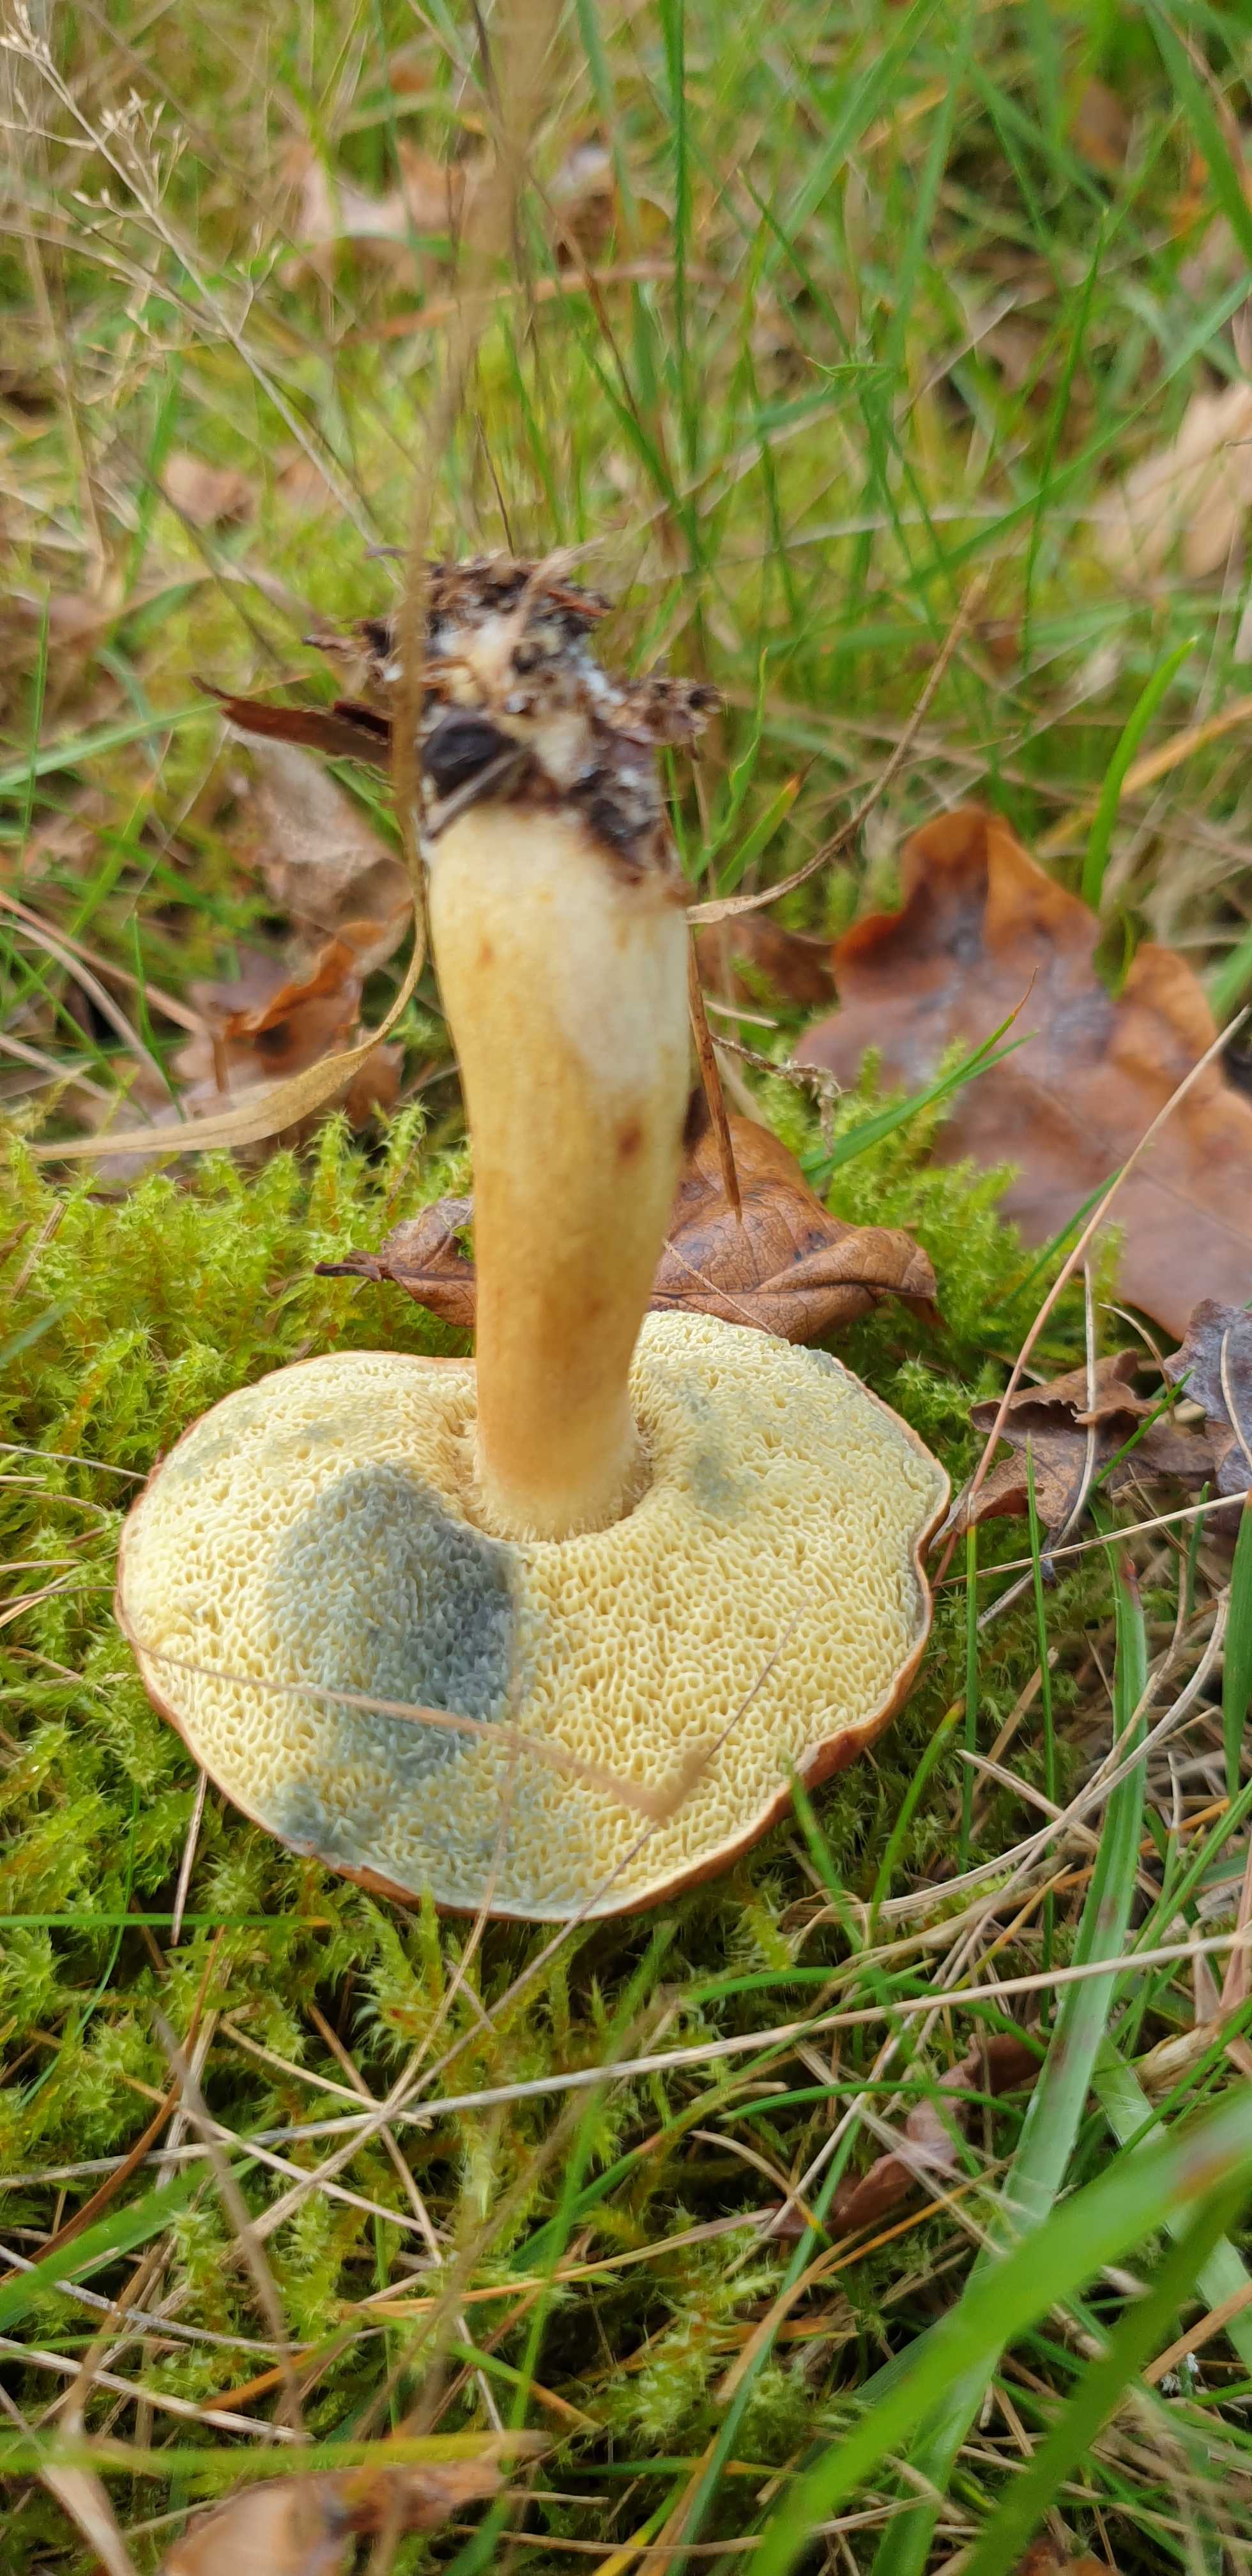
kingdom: Fungi
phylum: Basidiomycota
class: Agaricomycetes
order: Boletales
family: Boletaceae
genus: Imleria
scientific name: Imleria badia
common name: brunstokket rørhat
